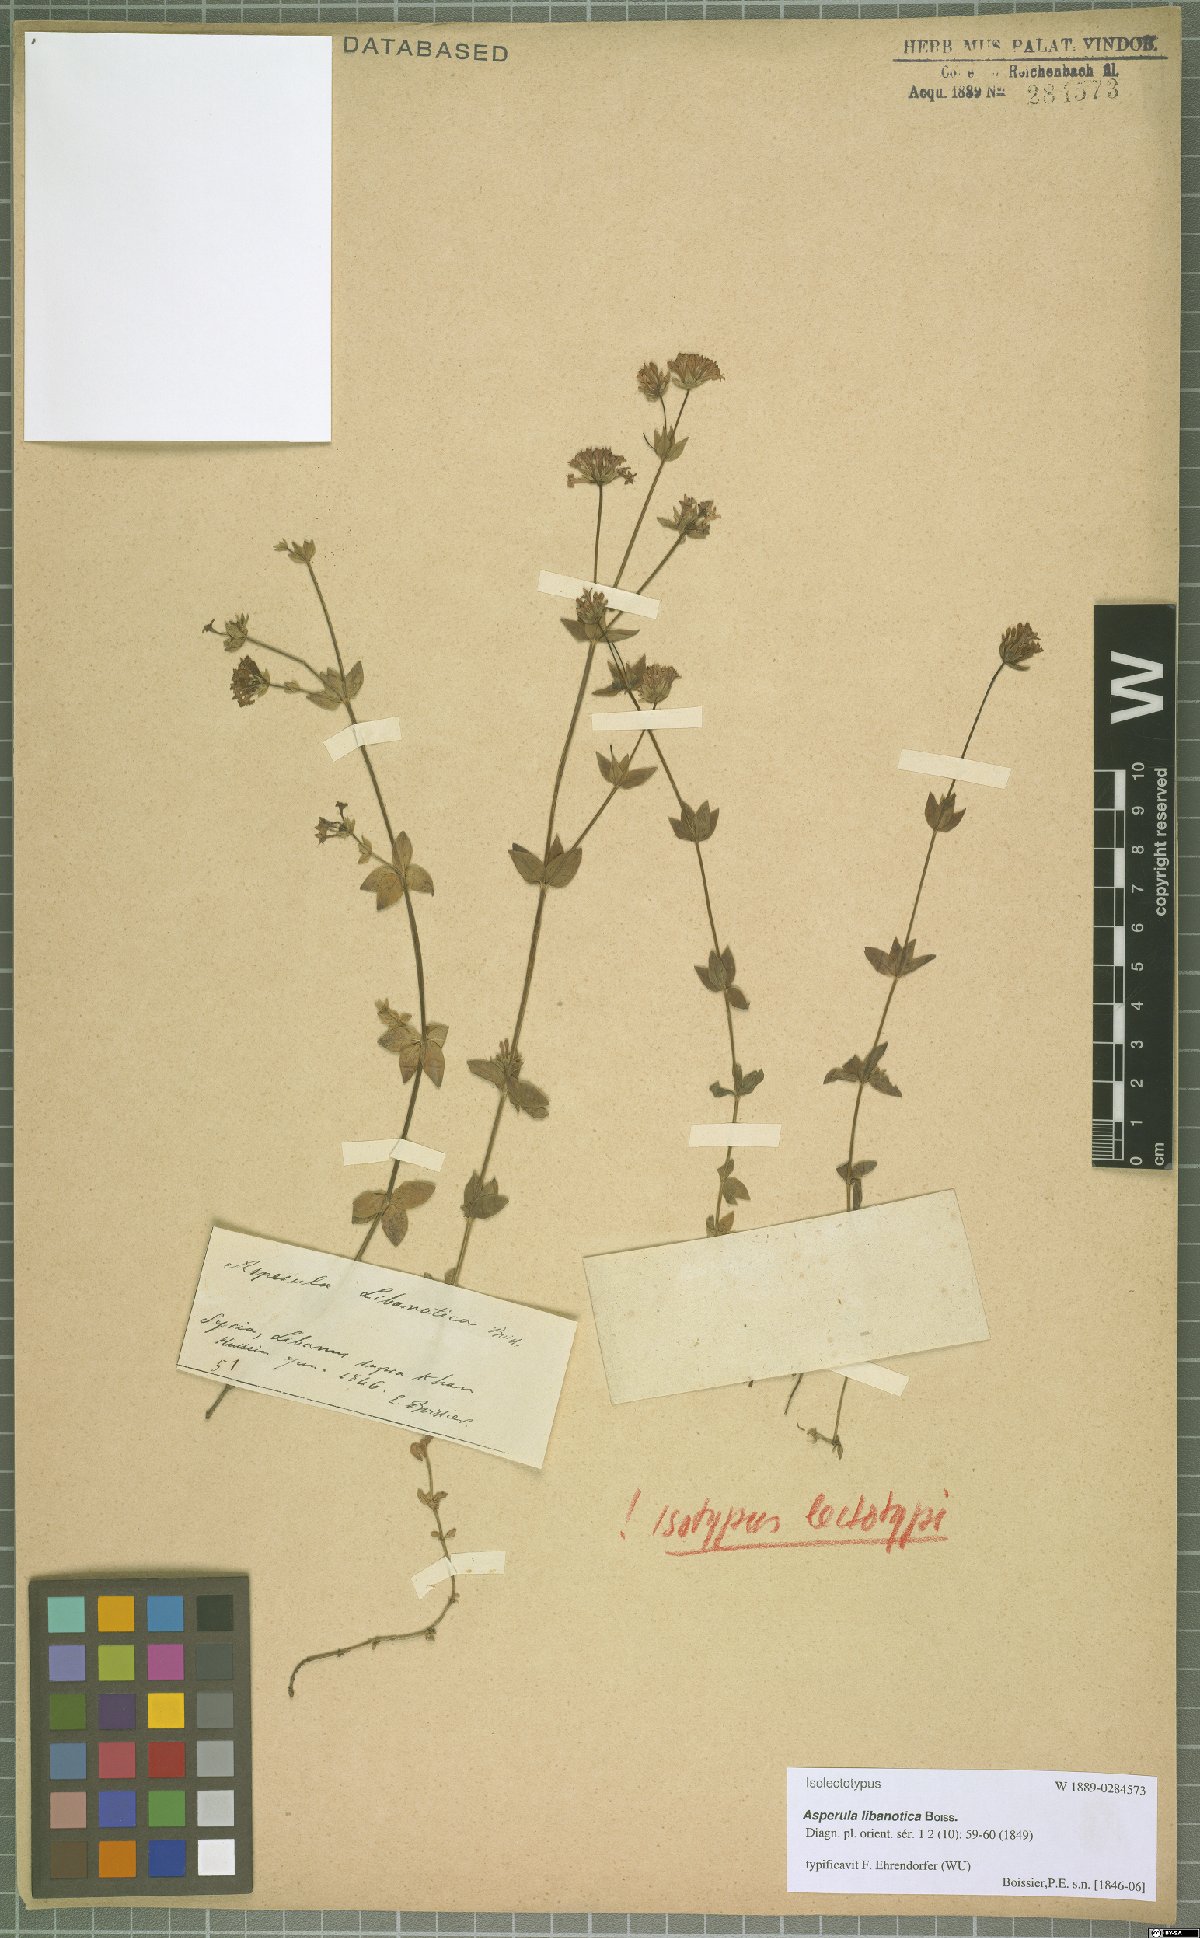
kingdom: Plantae
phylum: Tracheophyta
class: Magnoliopsida
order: Gentianales
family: Rubiaceae
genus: Asperula
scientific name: Asperula libanotica
